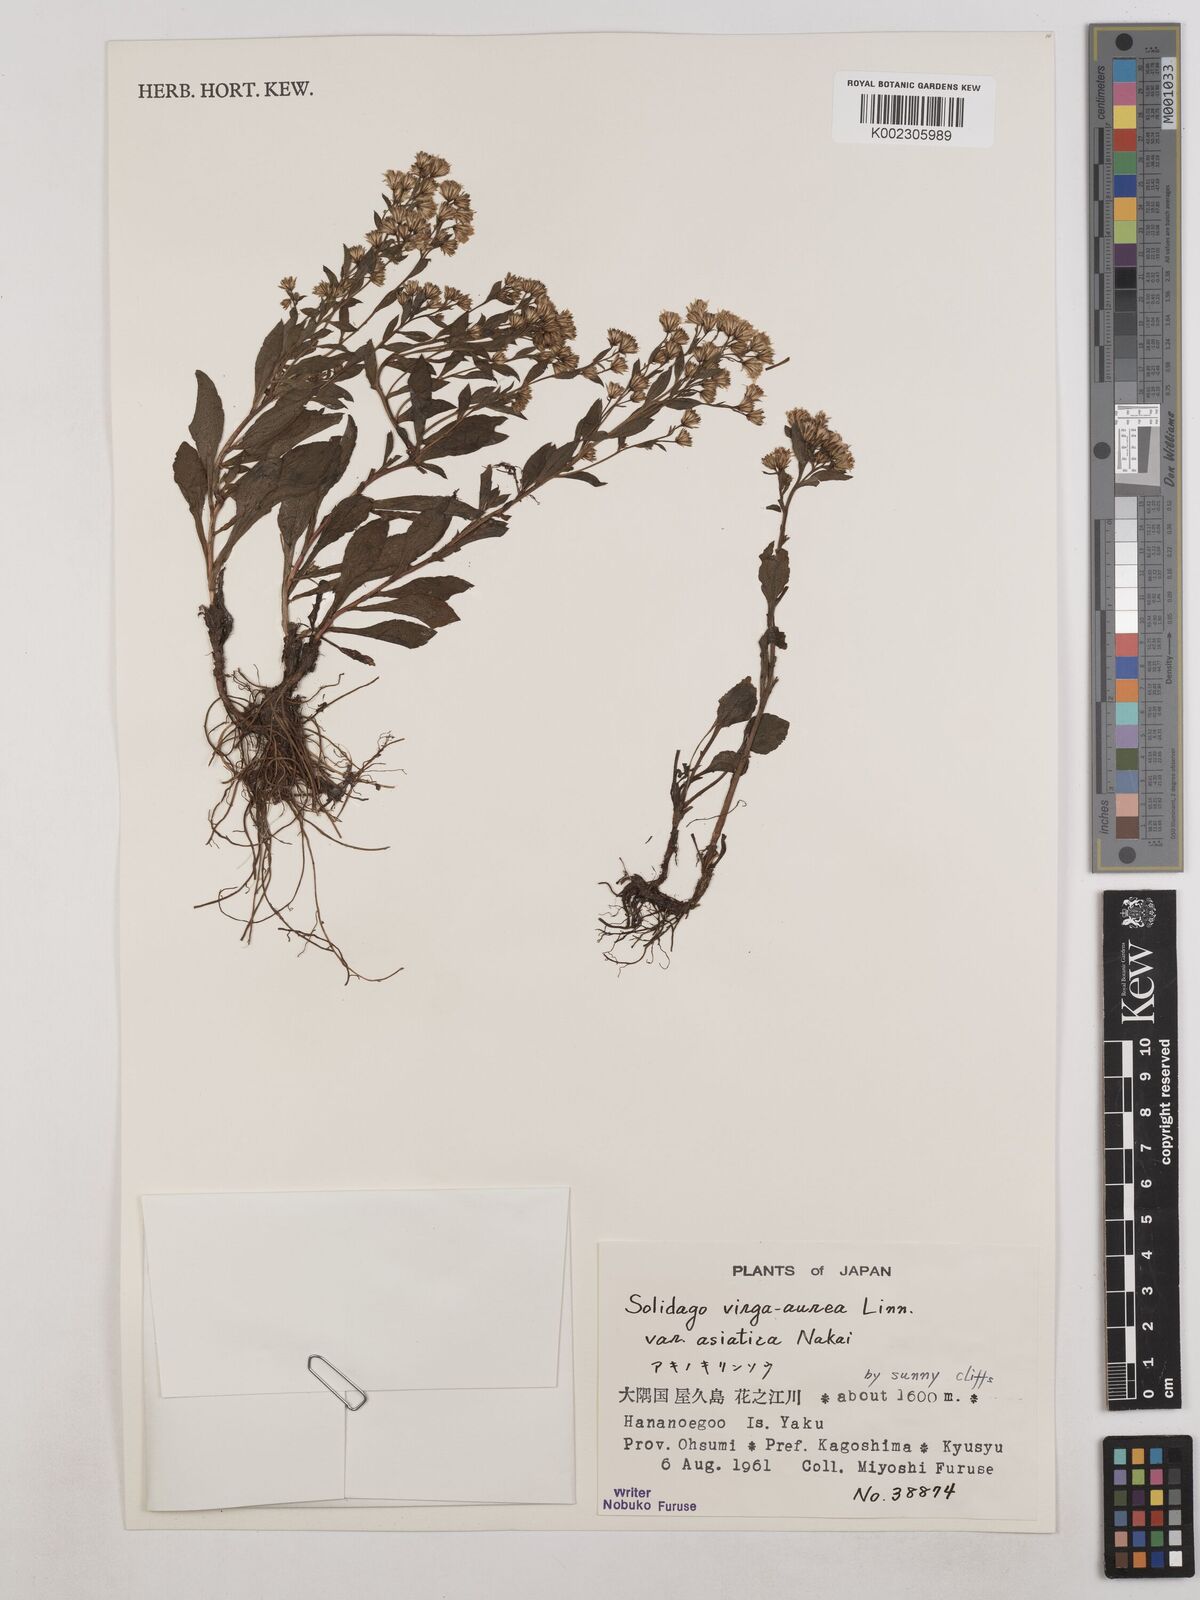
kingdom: Plantae
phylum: Tracheophyta
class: Magnoliopsida
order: Asterales
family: Asteraceae
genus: Solidago
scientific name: Solidago virgaurea
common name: Goldenrod
